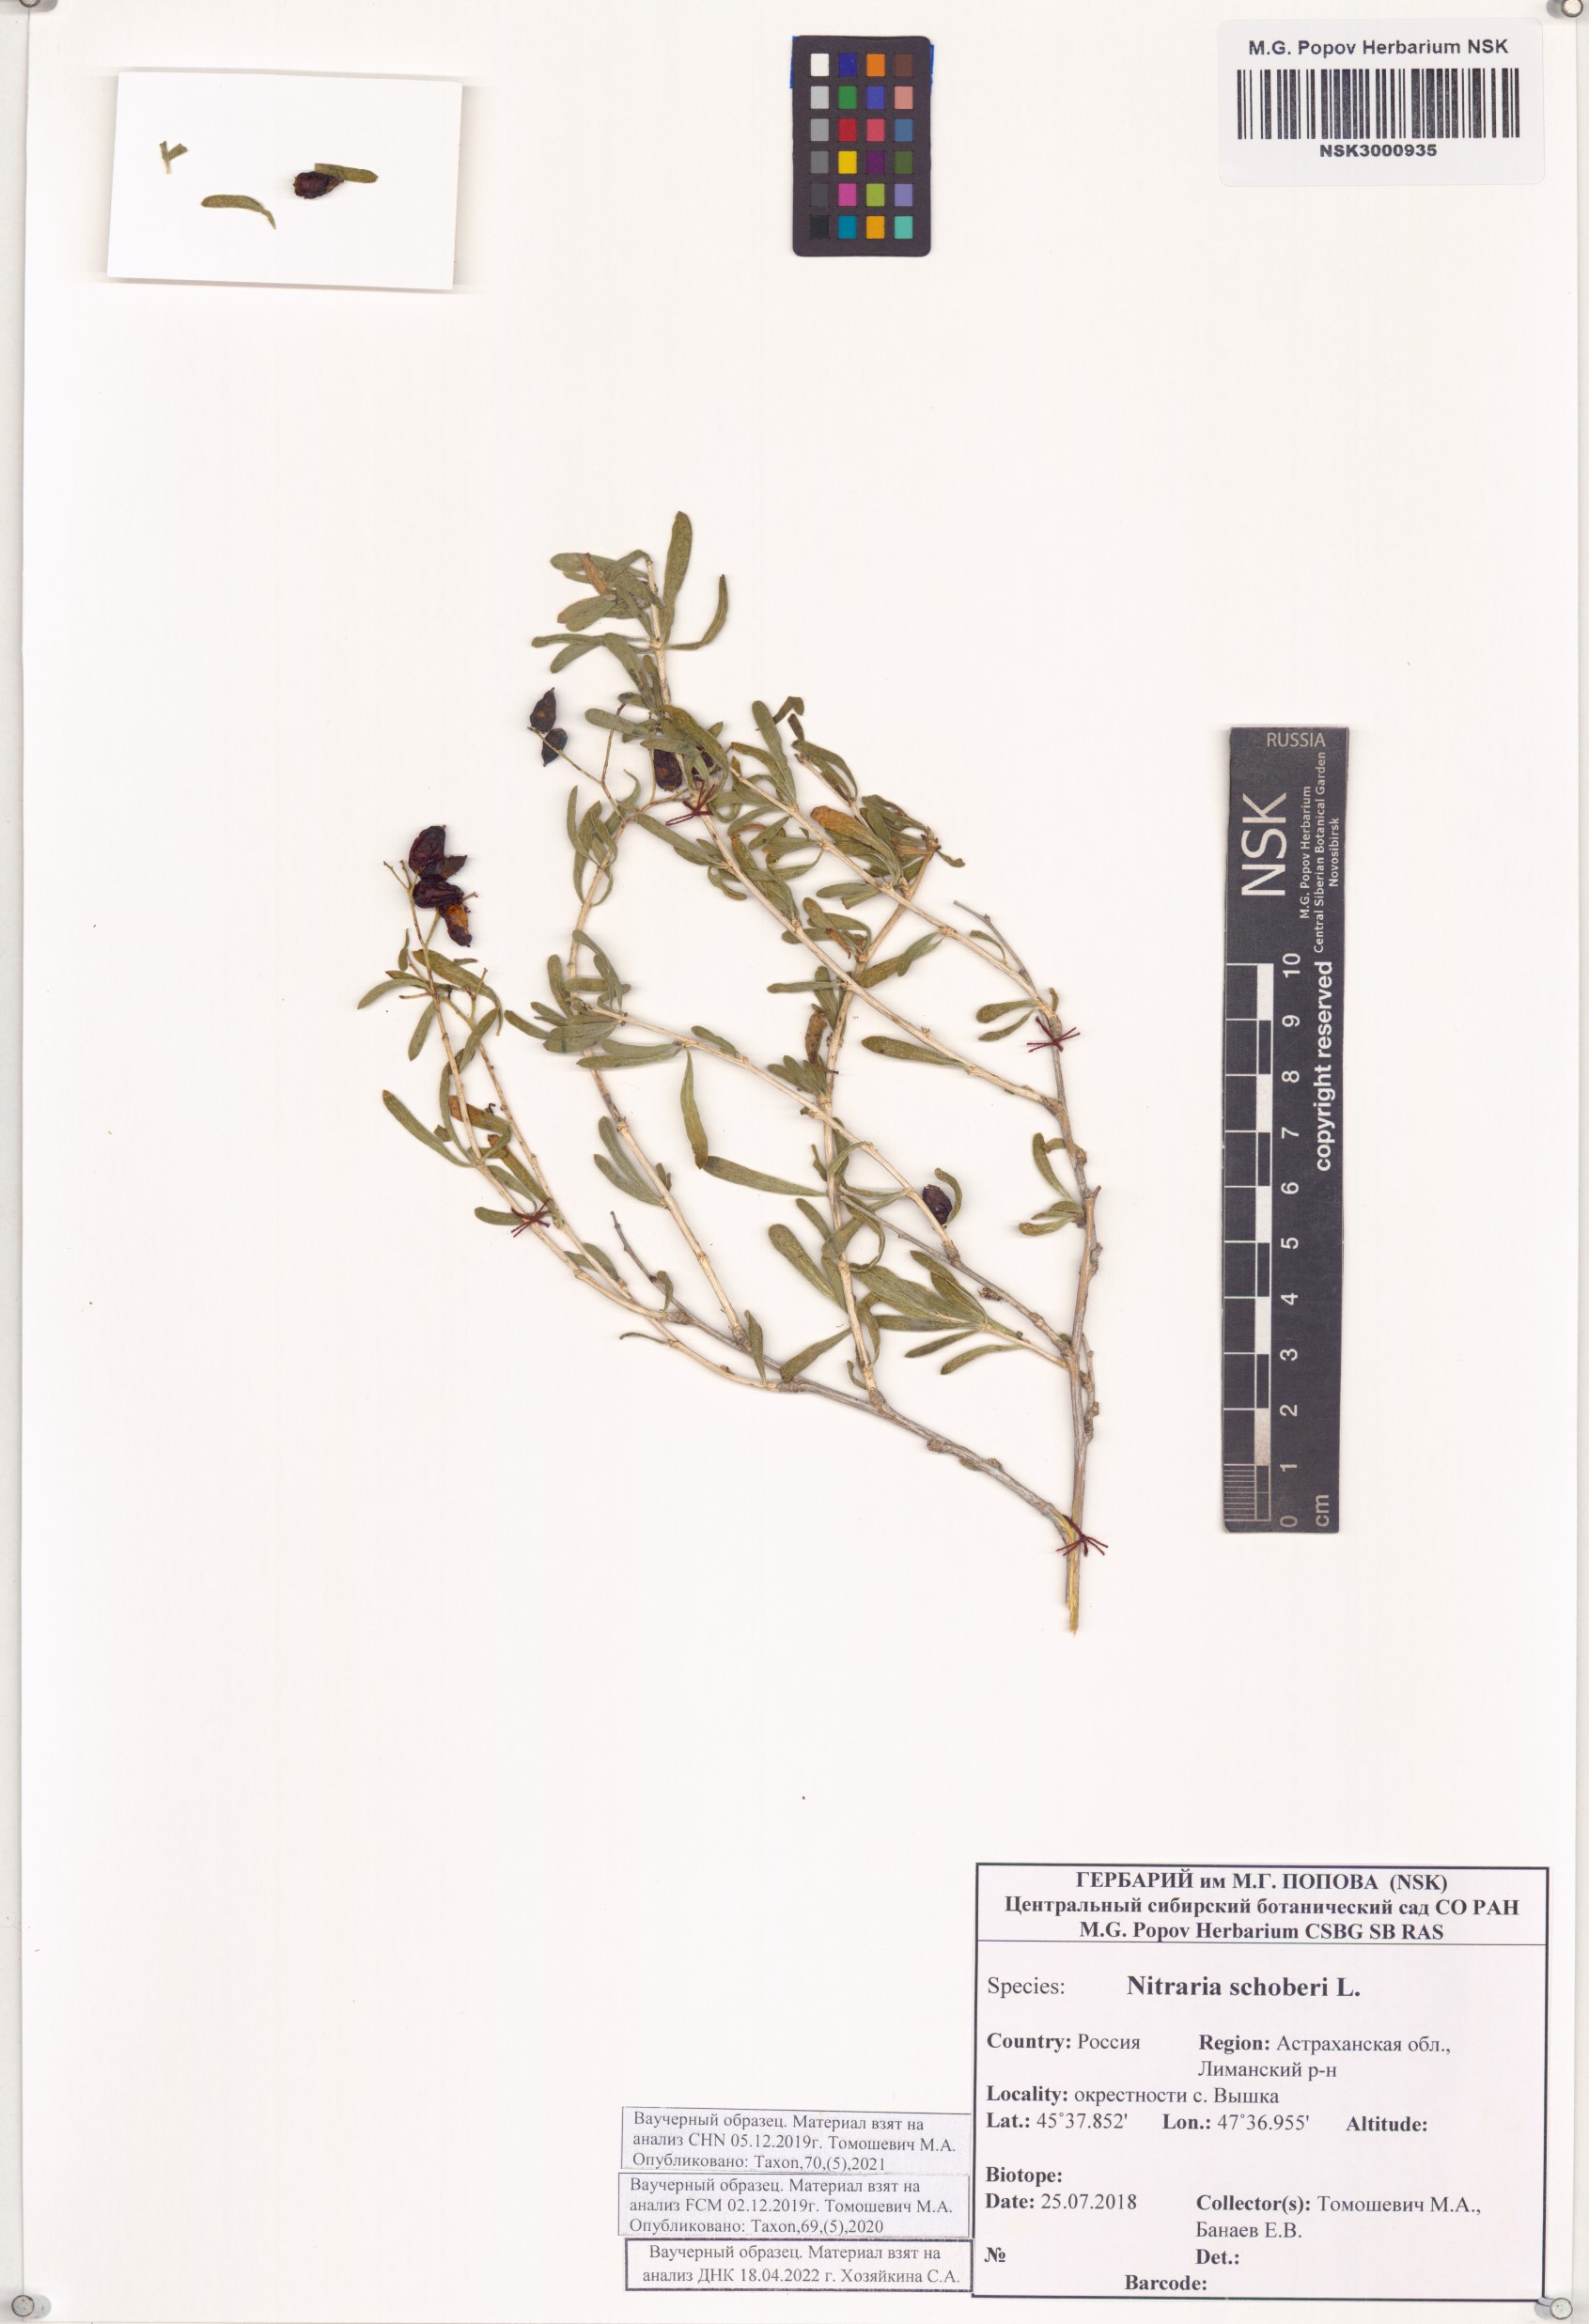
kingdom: Plantae
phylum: Tracheophyta
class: Magnoliopsida
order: Sapindales
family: Nitrariaceae
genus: Nitraria
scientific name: Nitraria schoberi
